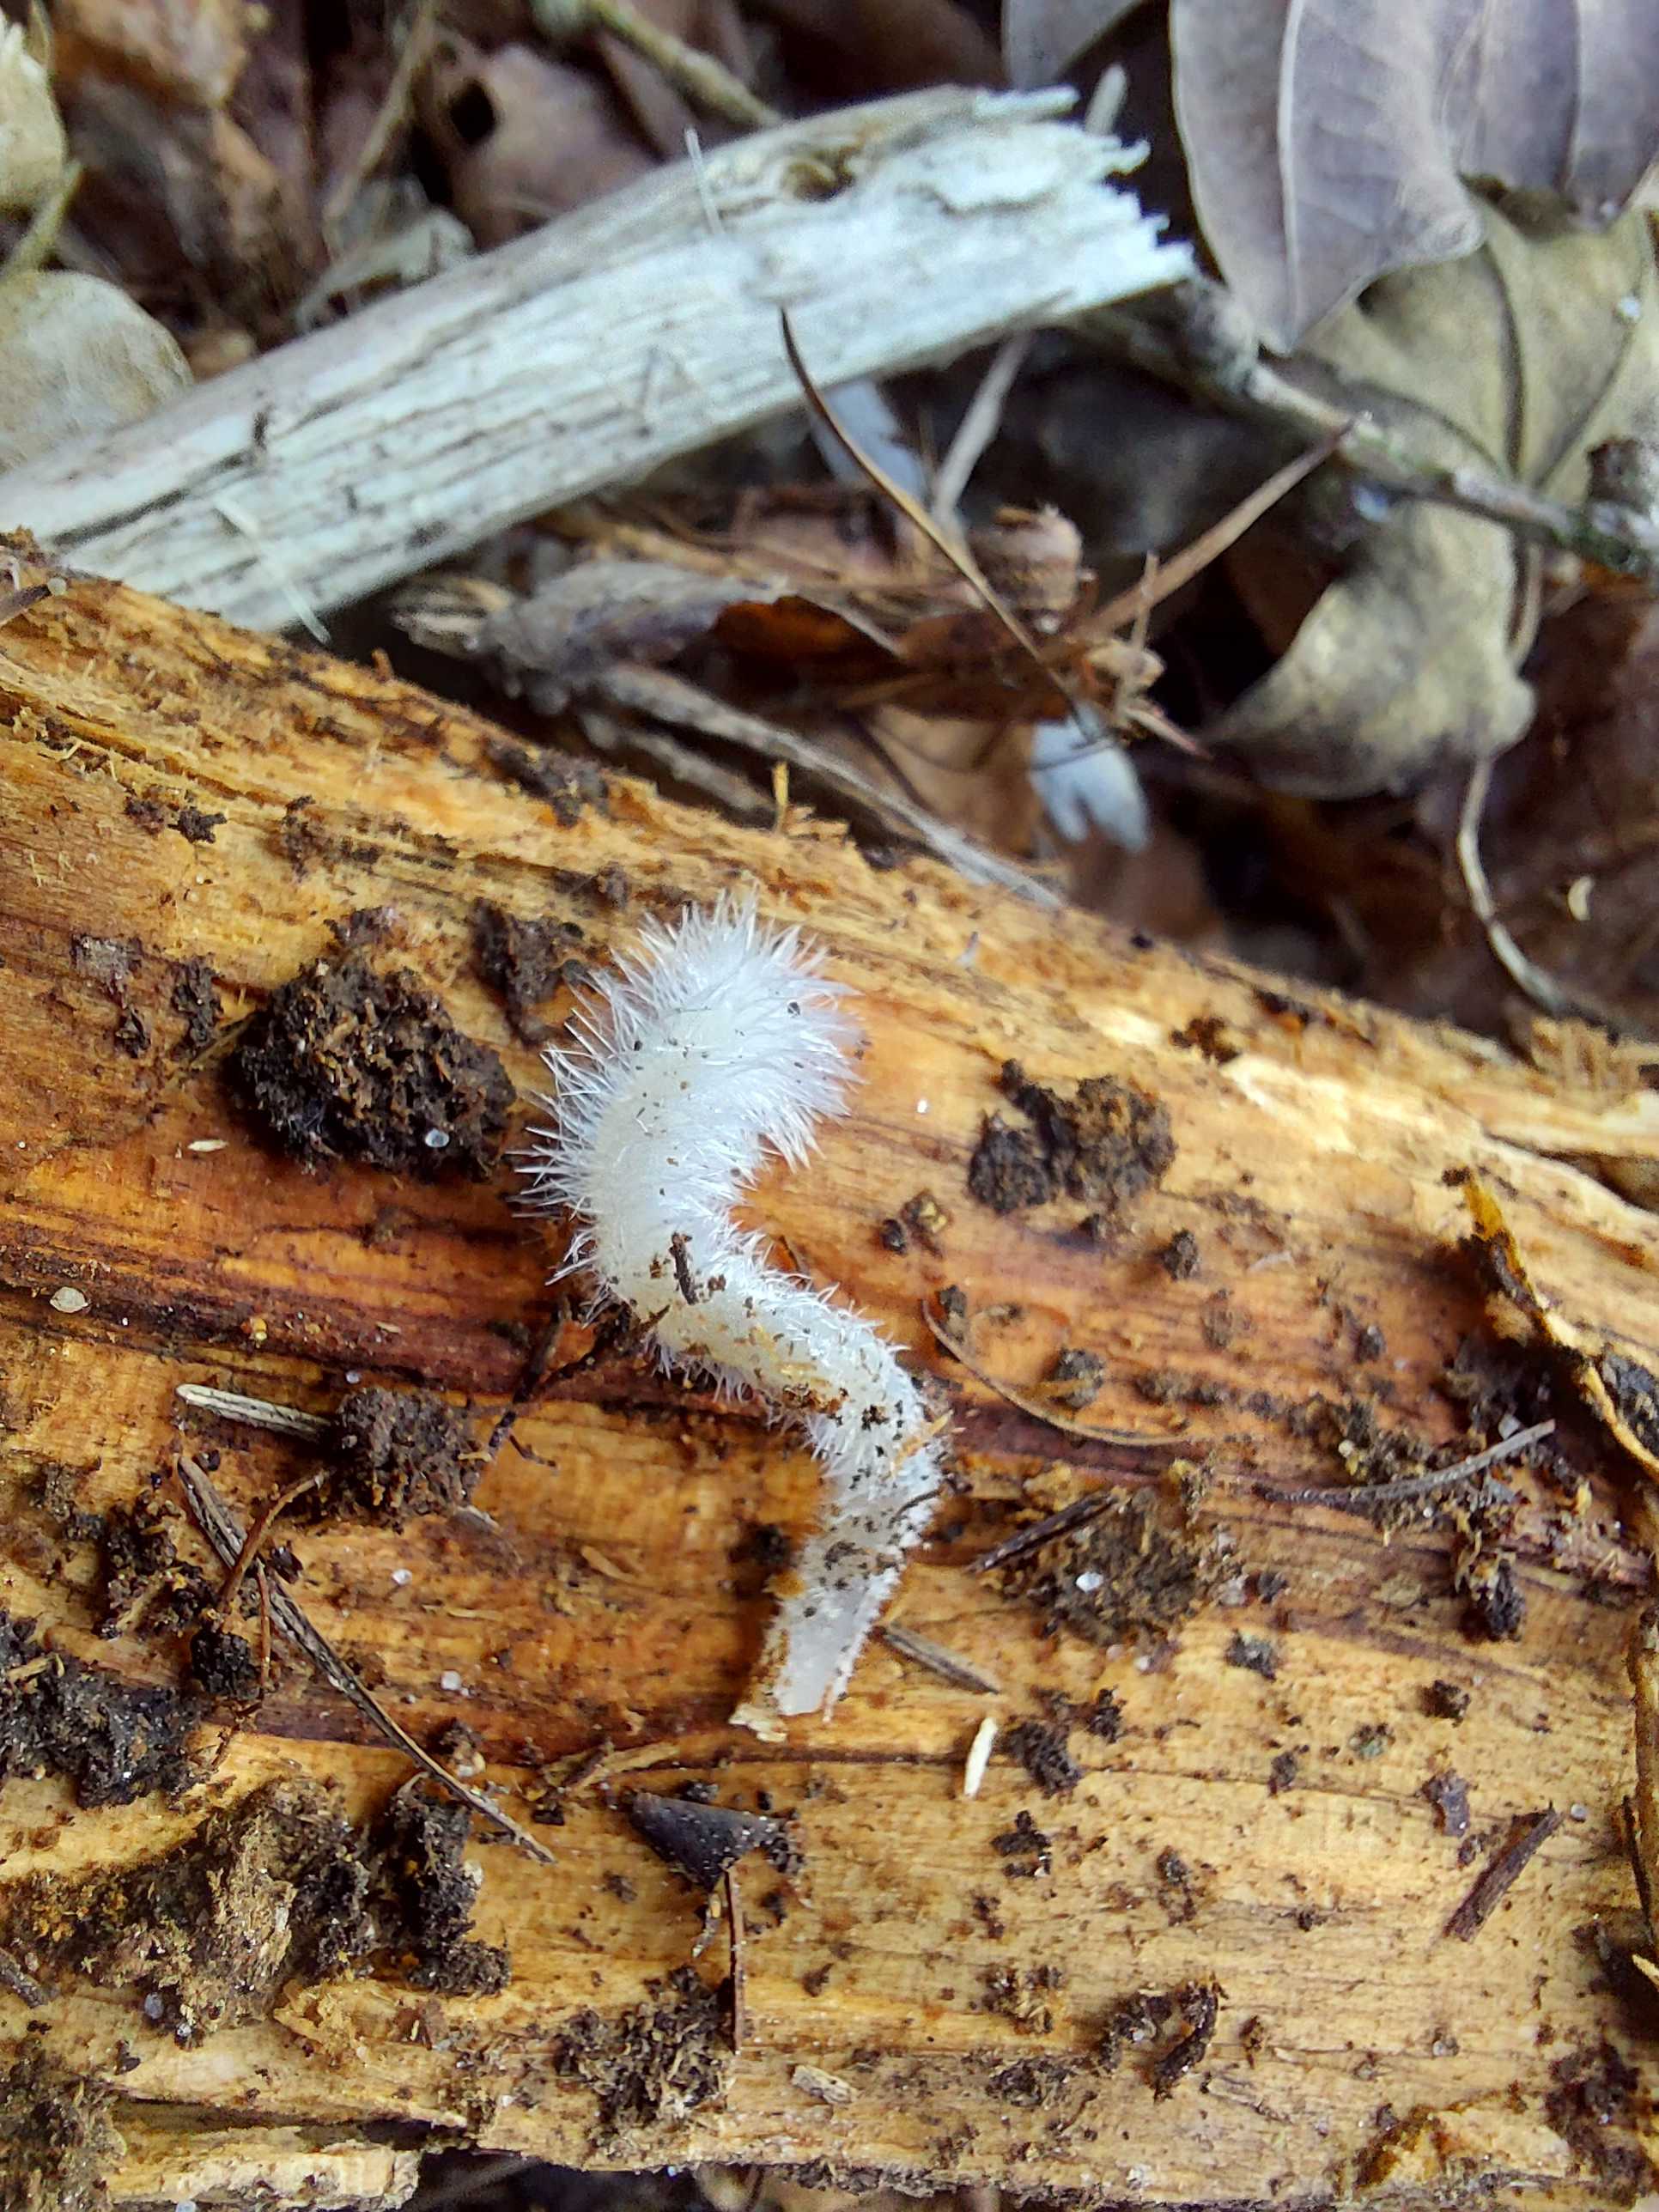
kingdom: Fungi
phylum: Basidiomycota
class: Agaricomycetes
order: Agaricales
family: Mycenaceae
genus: Mycena
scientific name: Mycena
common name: huesvamp
